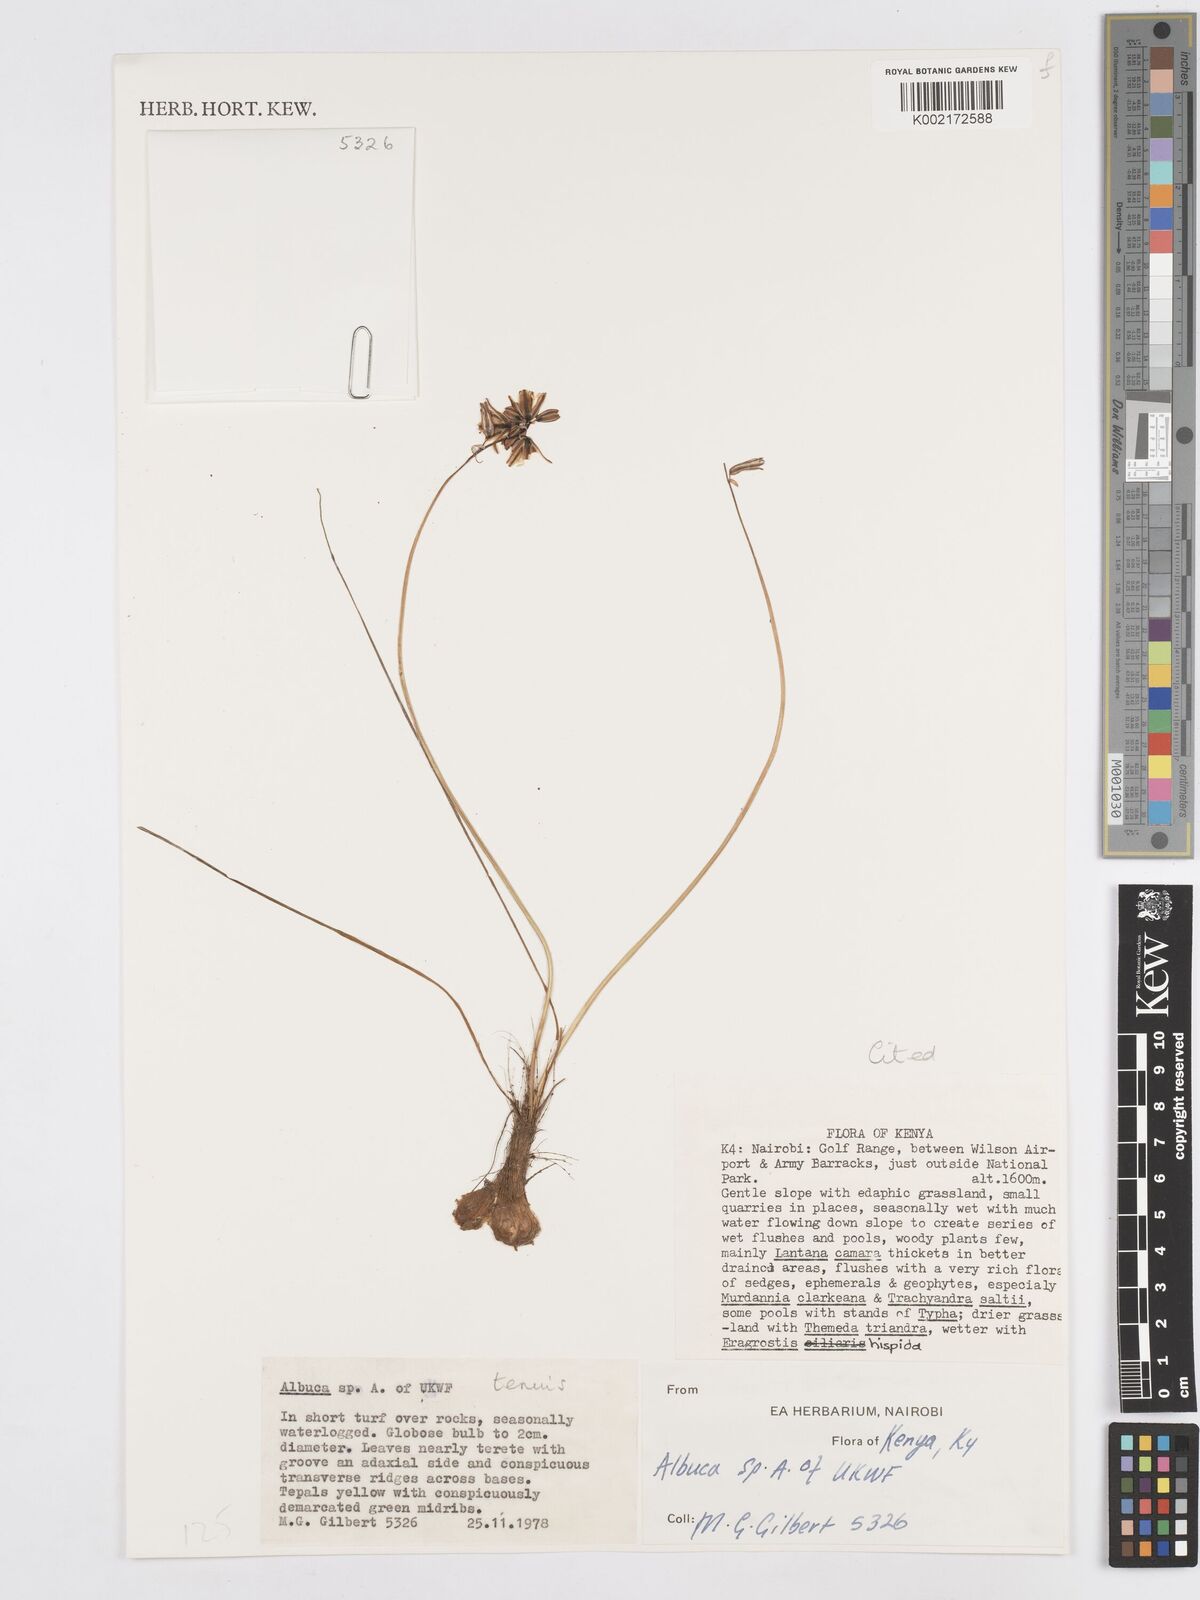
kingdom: Plantae
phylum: Tracheophyta
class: Liliopsida
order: Asparagales
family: Asparagaceae
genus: Albuca
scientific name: Albuca tenuis
